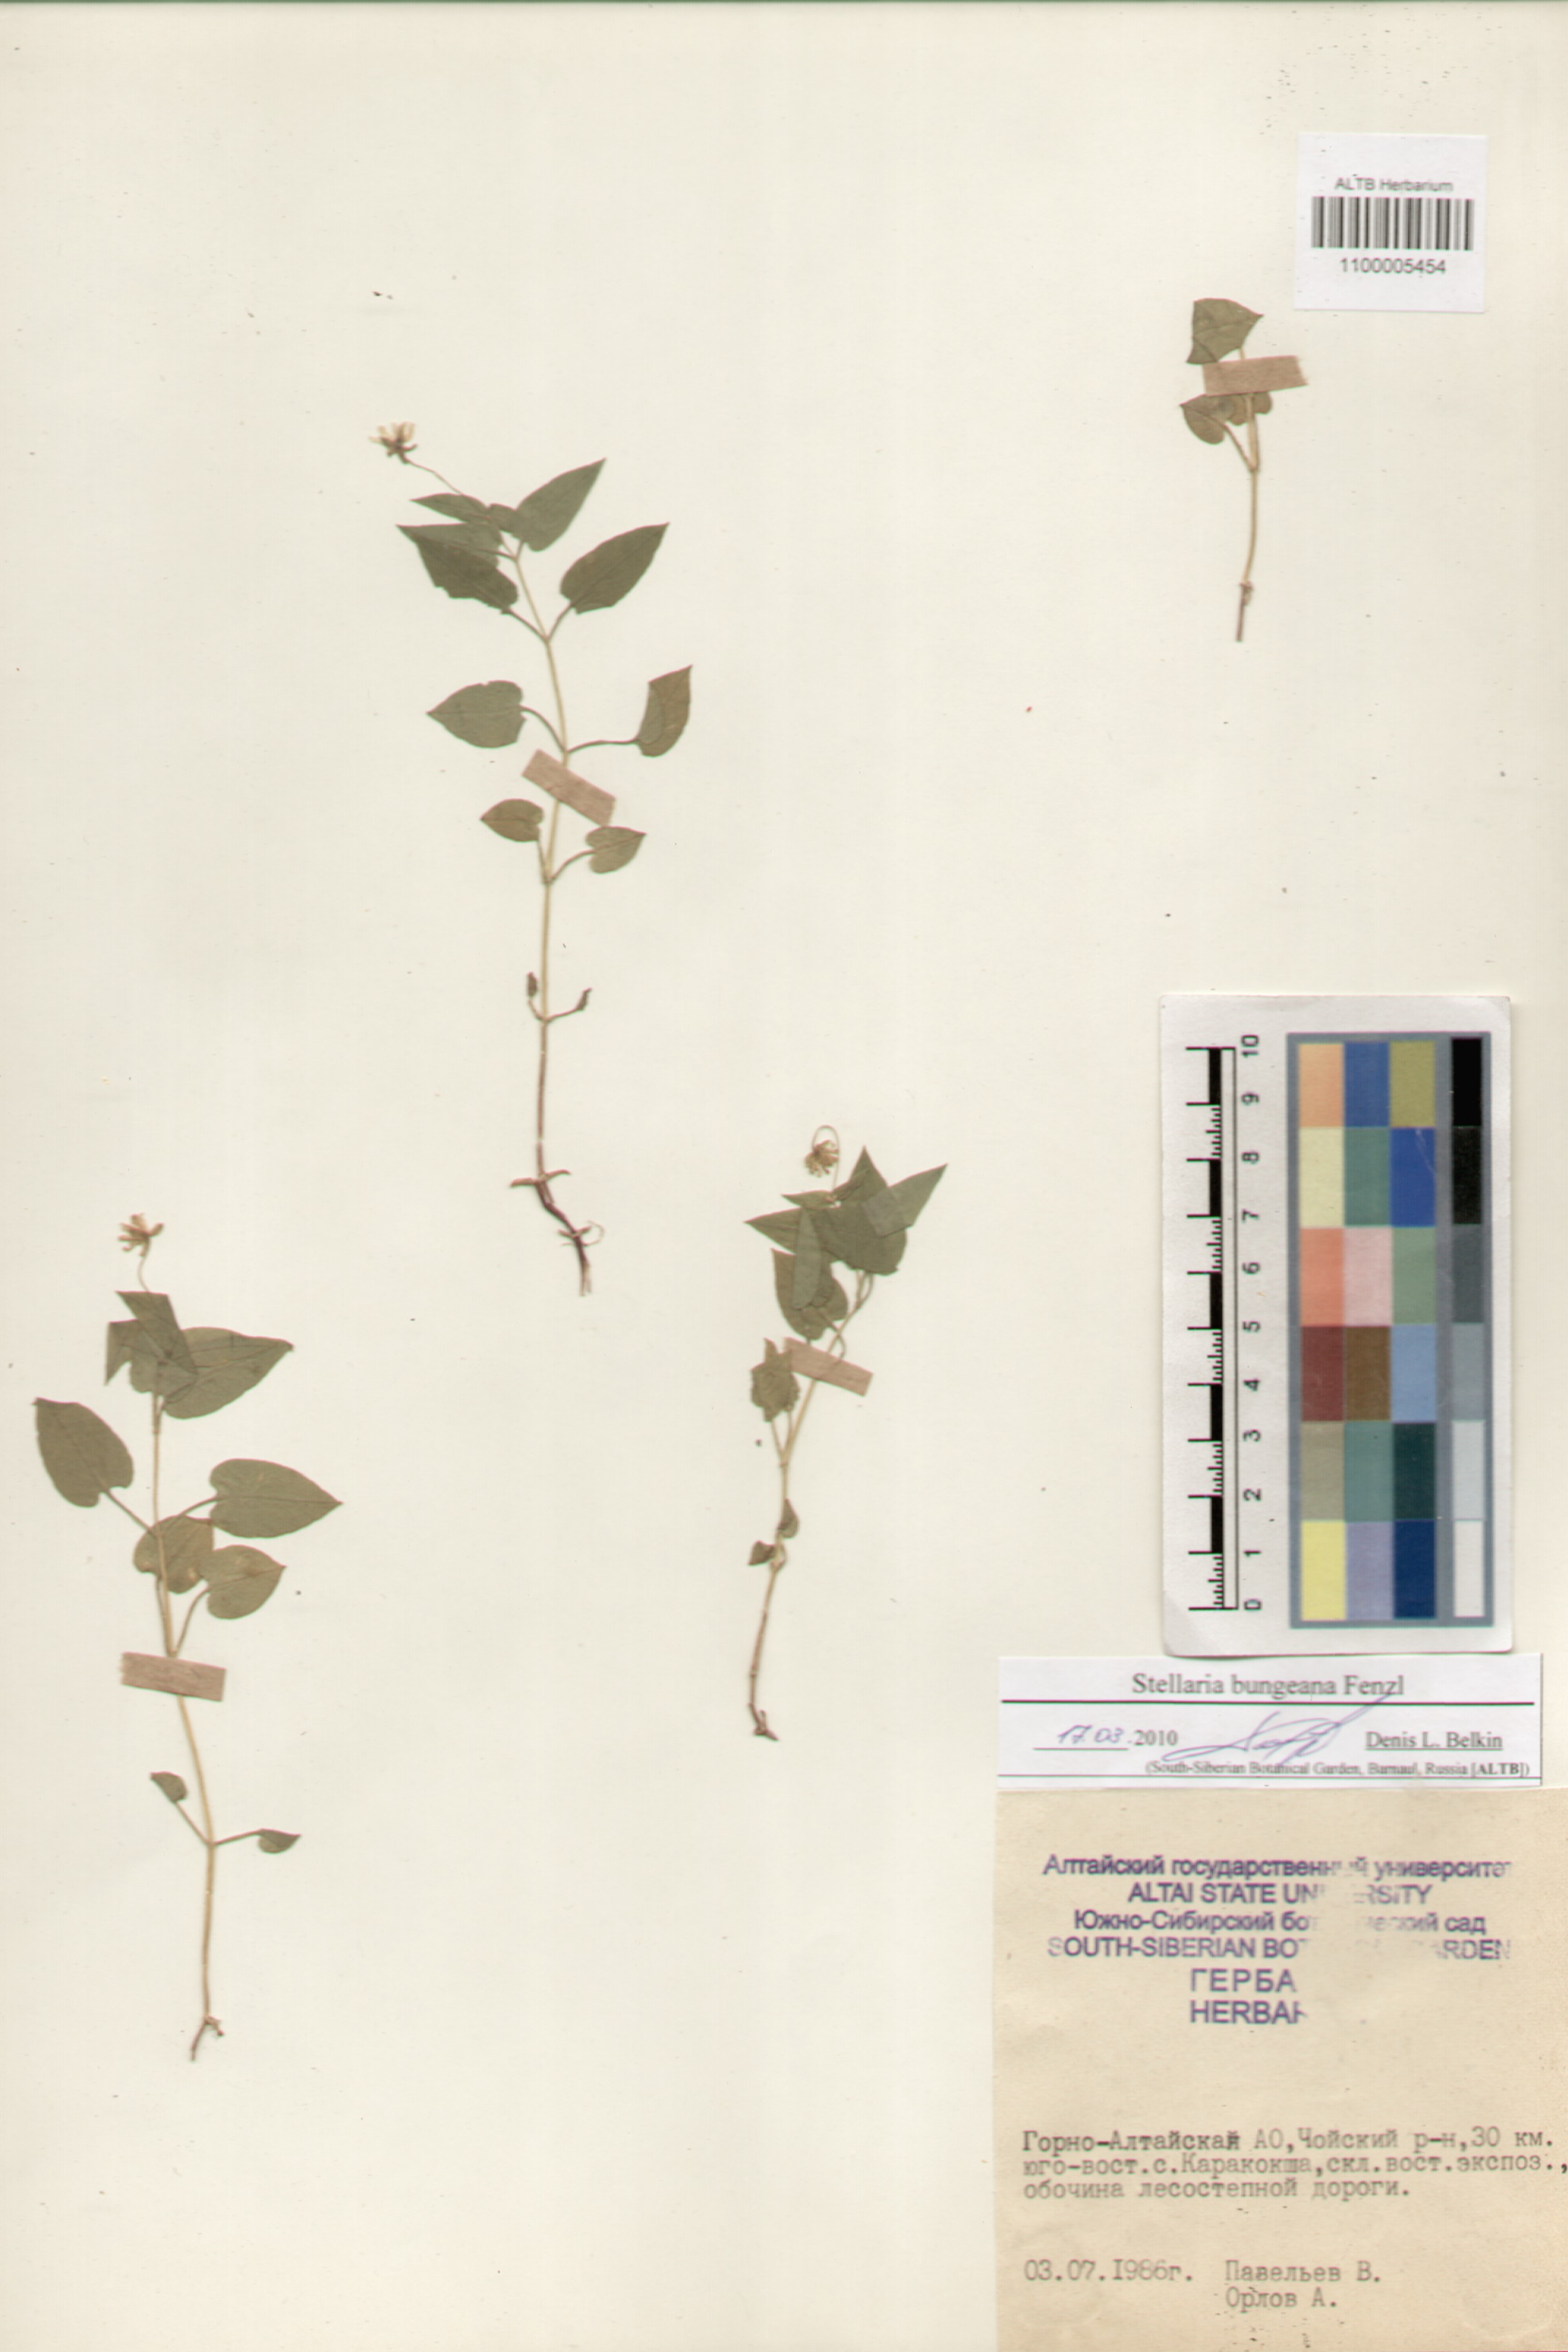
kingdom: Plantae
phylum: Tracheophyta
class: Magnoliopsida
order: Caryophyllales
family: Caryophyllaceae
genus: Stellaria
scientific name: Stellaria bungeana
